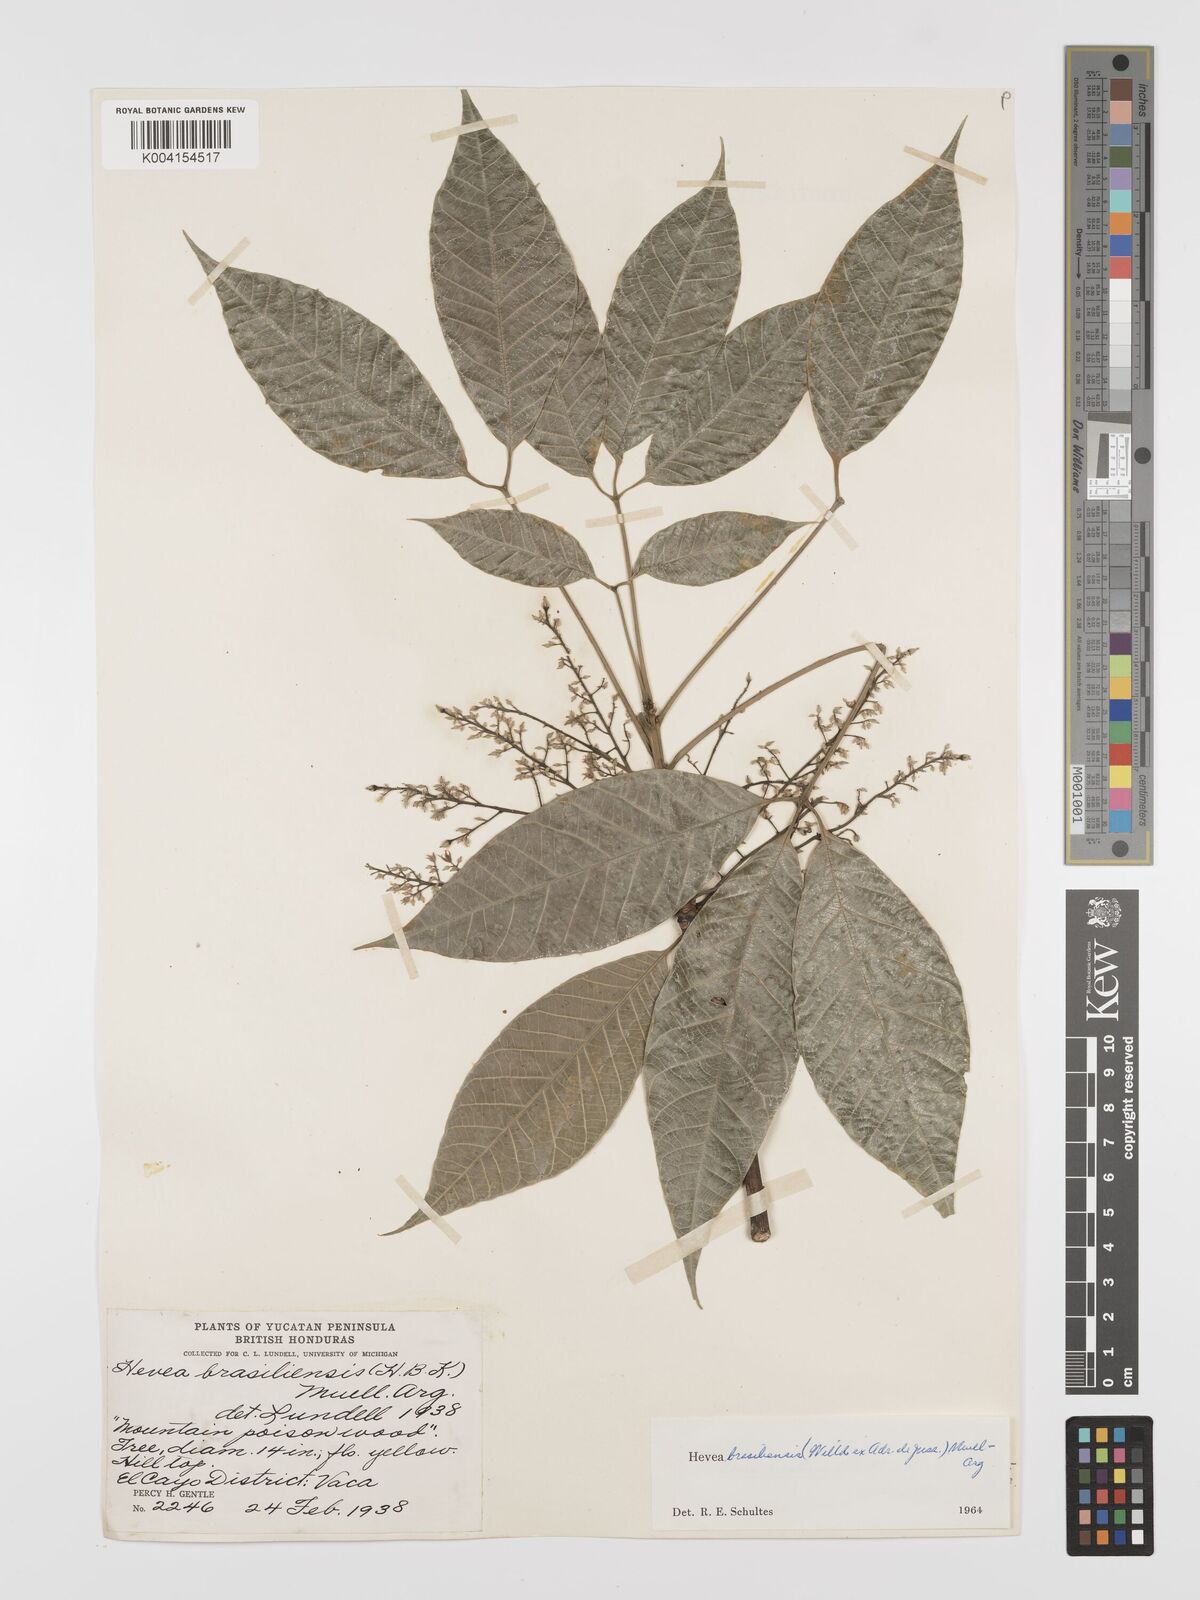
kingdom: Plantae
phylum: Tracheophyta
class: Magnoliopsida
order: Malpighiales
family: Euphorbiaceae
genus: Hevea
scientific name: Hevea brasiliensis
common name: Natural rubber
